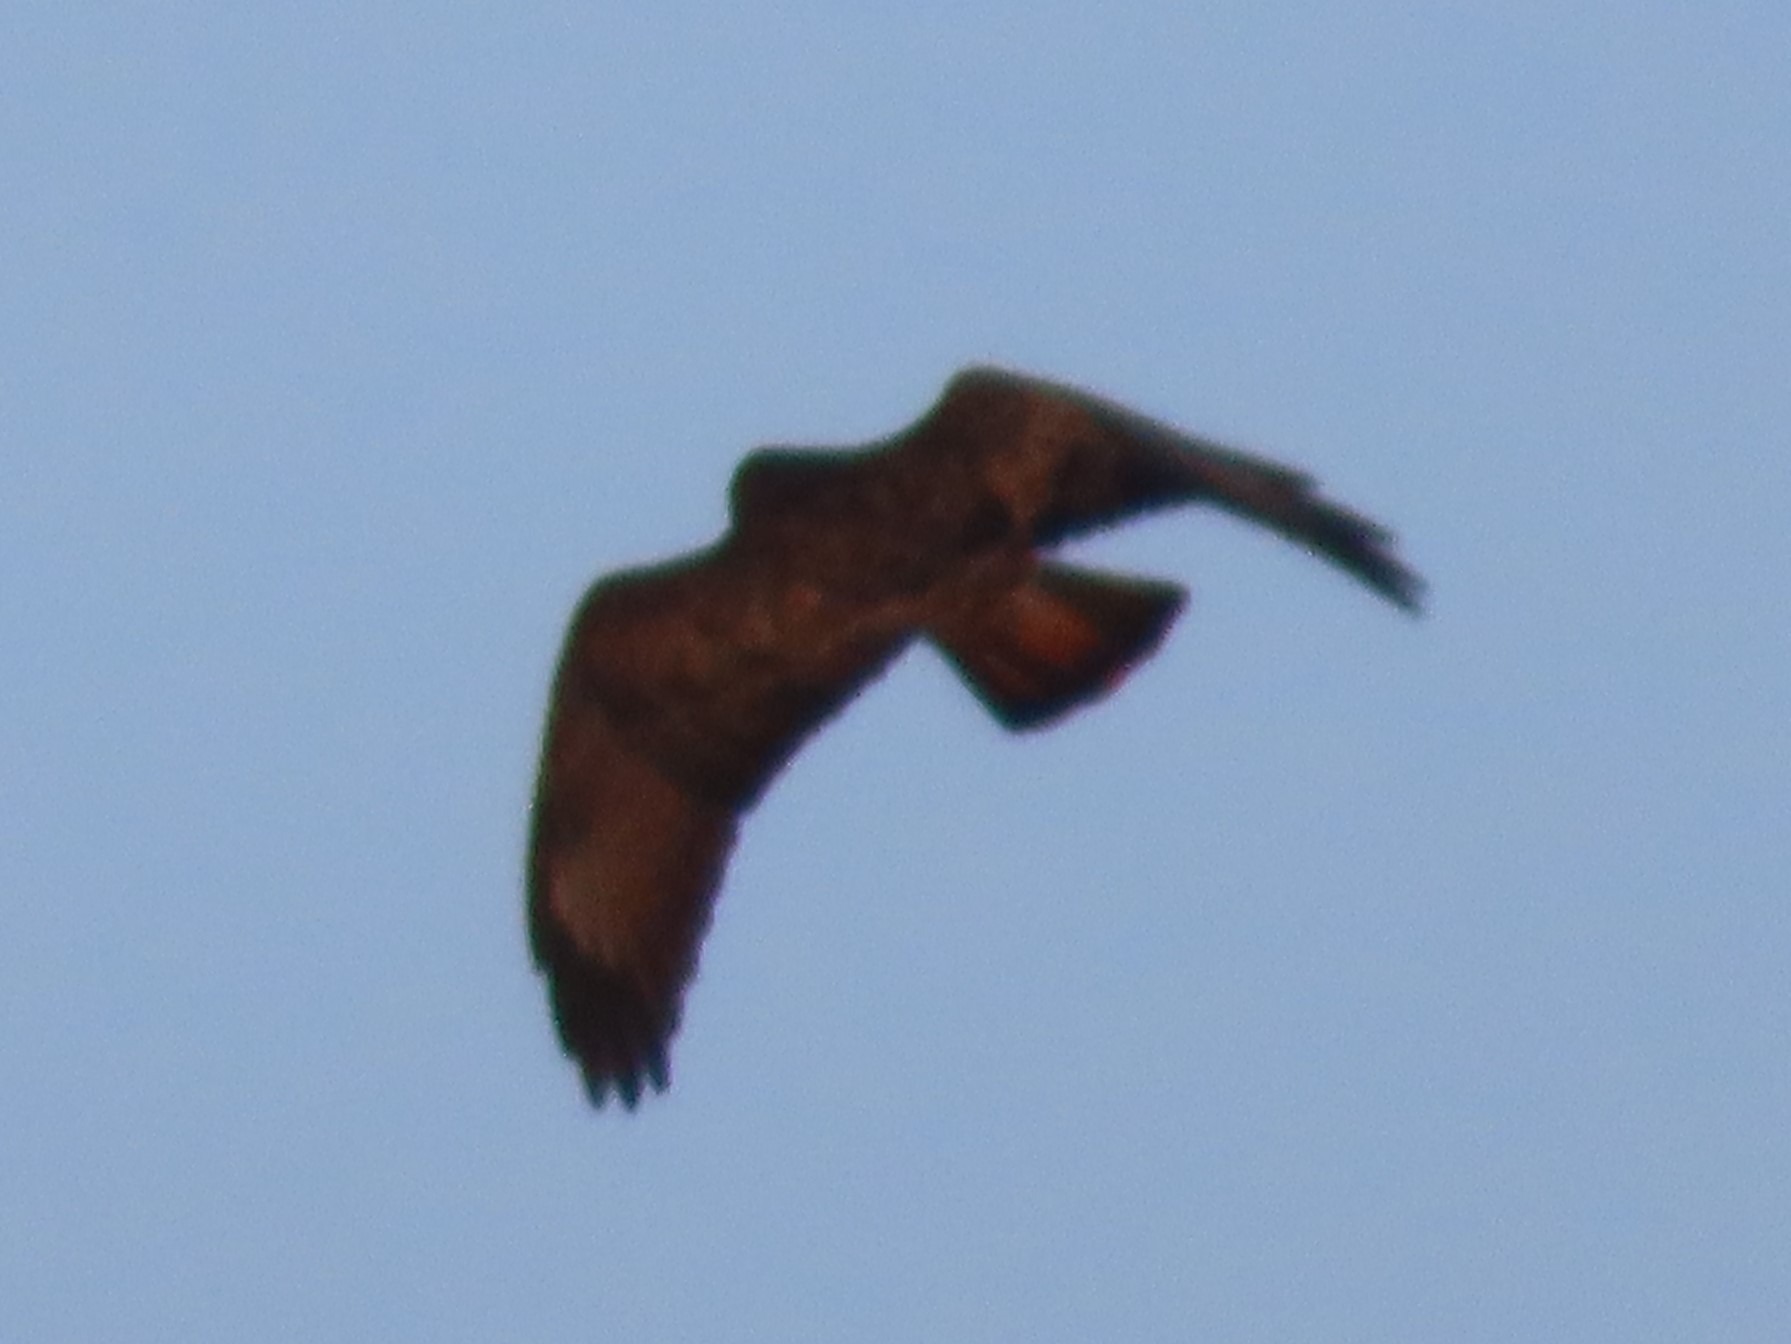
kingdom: Animalia
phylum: Chordata
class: Aves
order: Accipitriformes
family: Accipitridae
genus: Buteo
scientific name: Buteo buteo
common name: Musvåge
